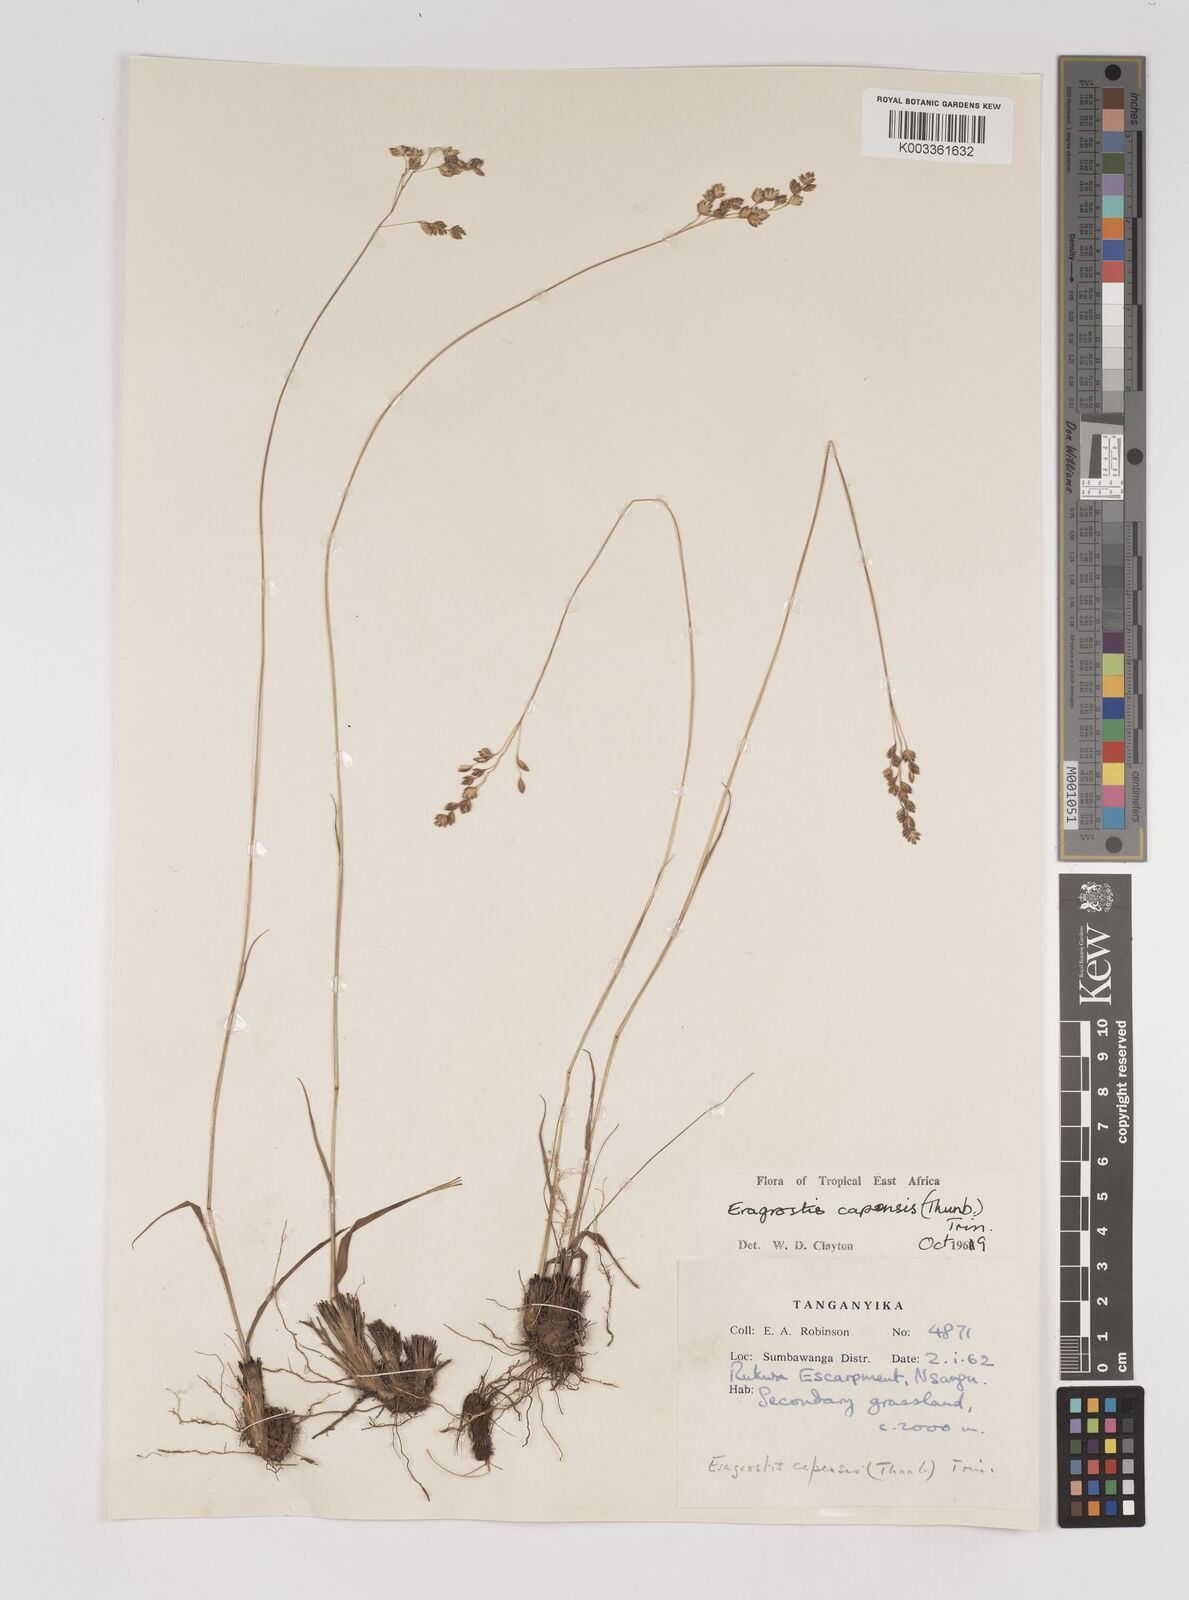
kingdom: Plantae
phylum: Tracheophyta
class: Liliopsida
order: Poales
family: Poaceae
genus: Eragrostis
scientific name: Eragrostis capensis
